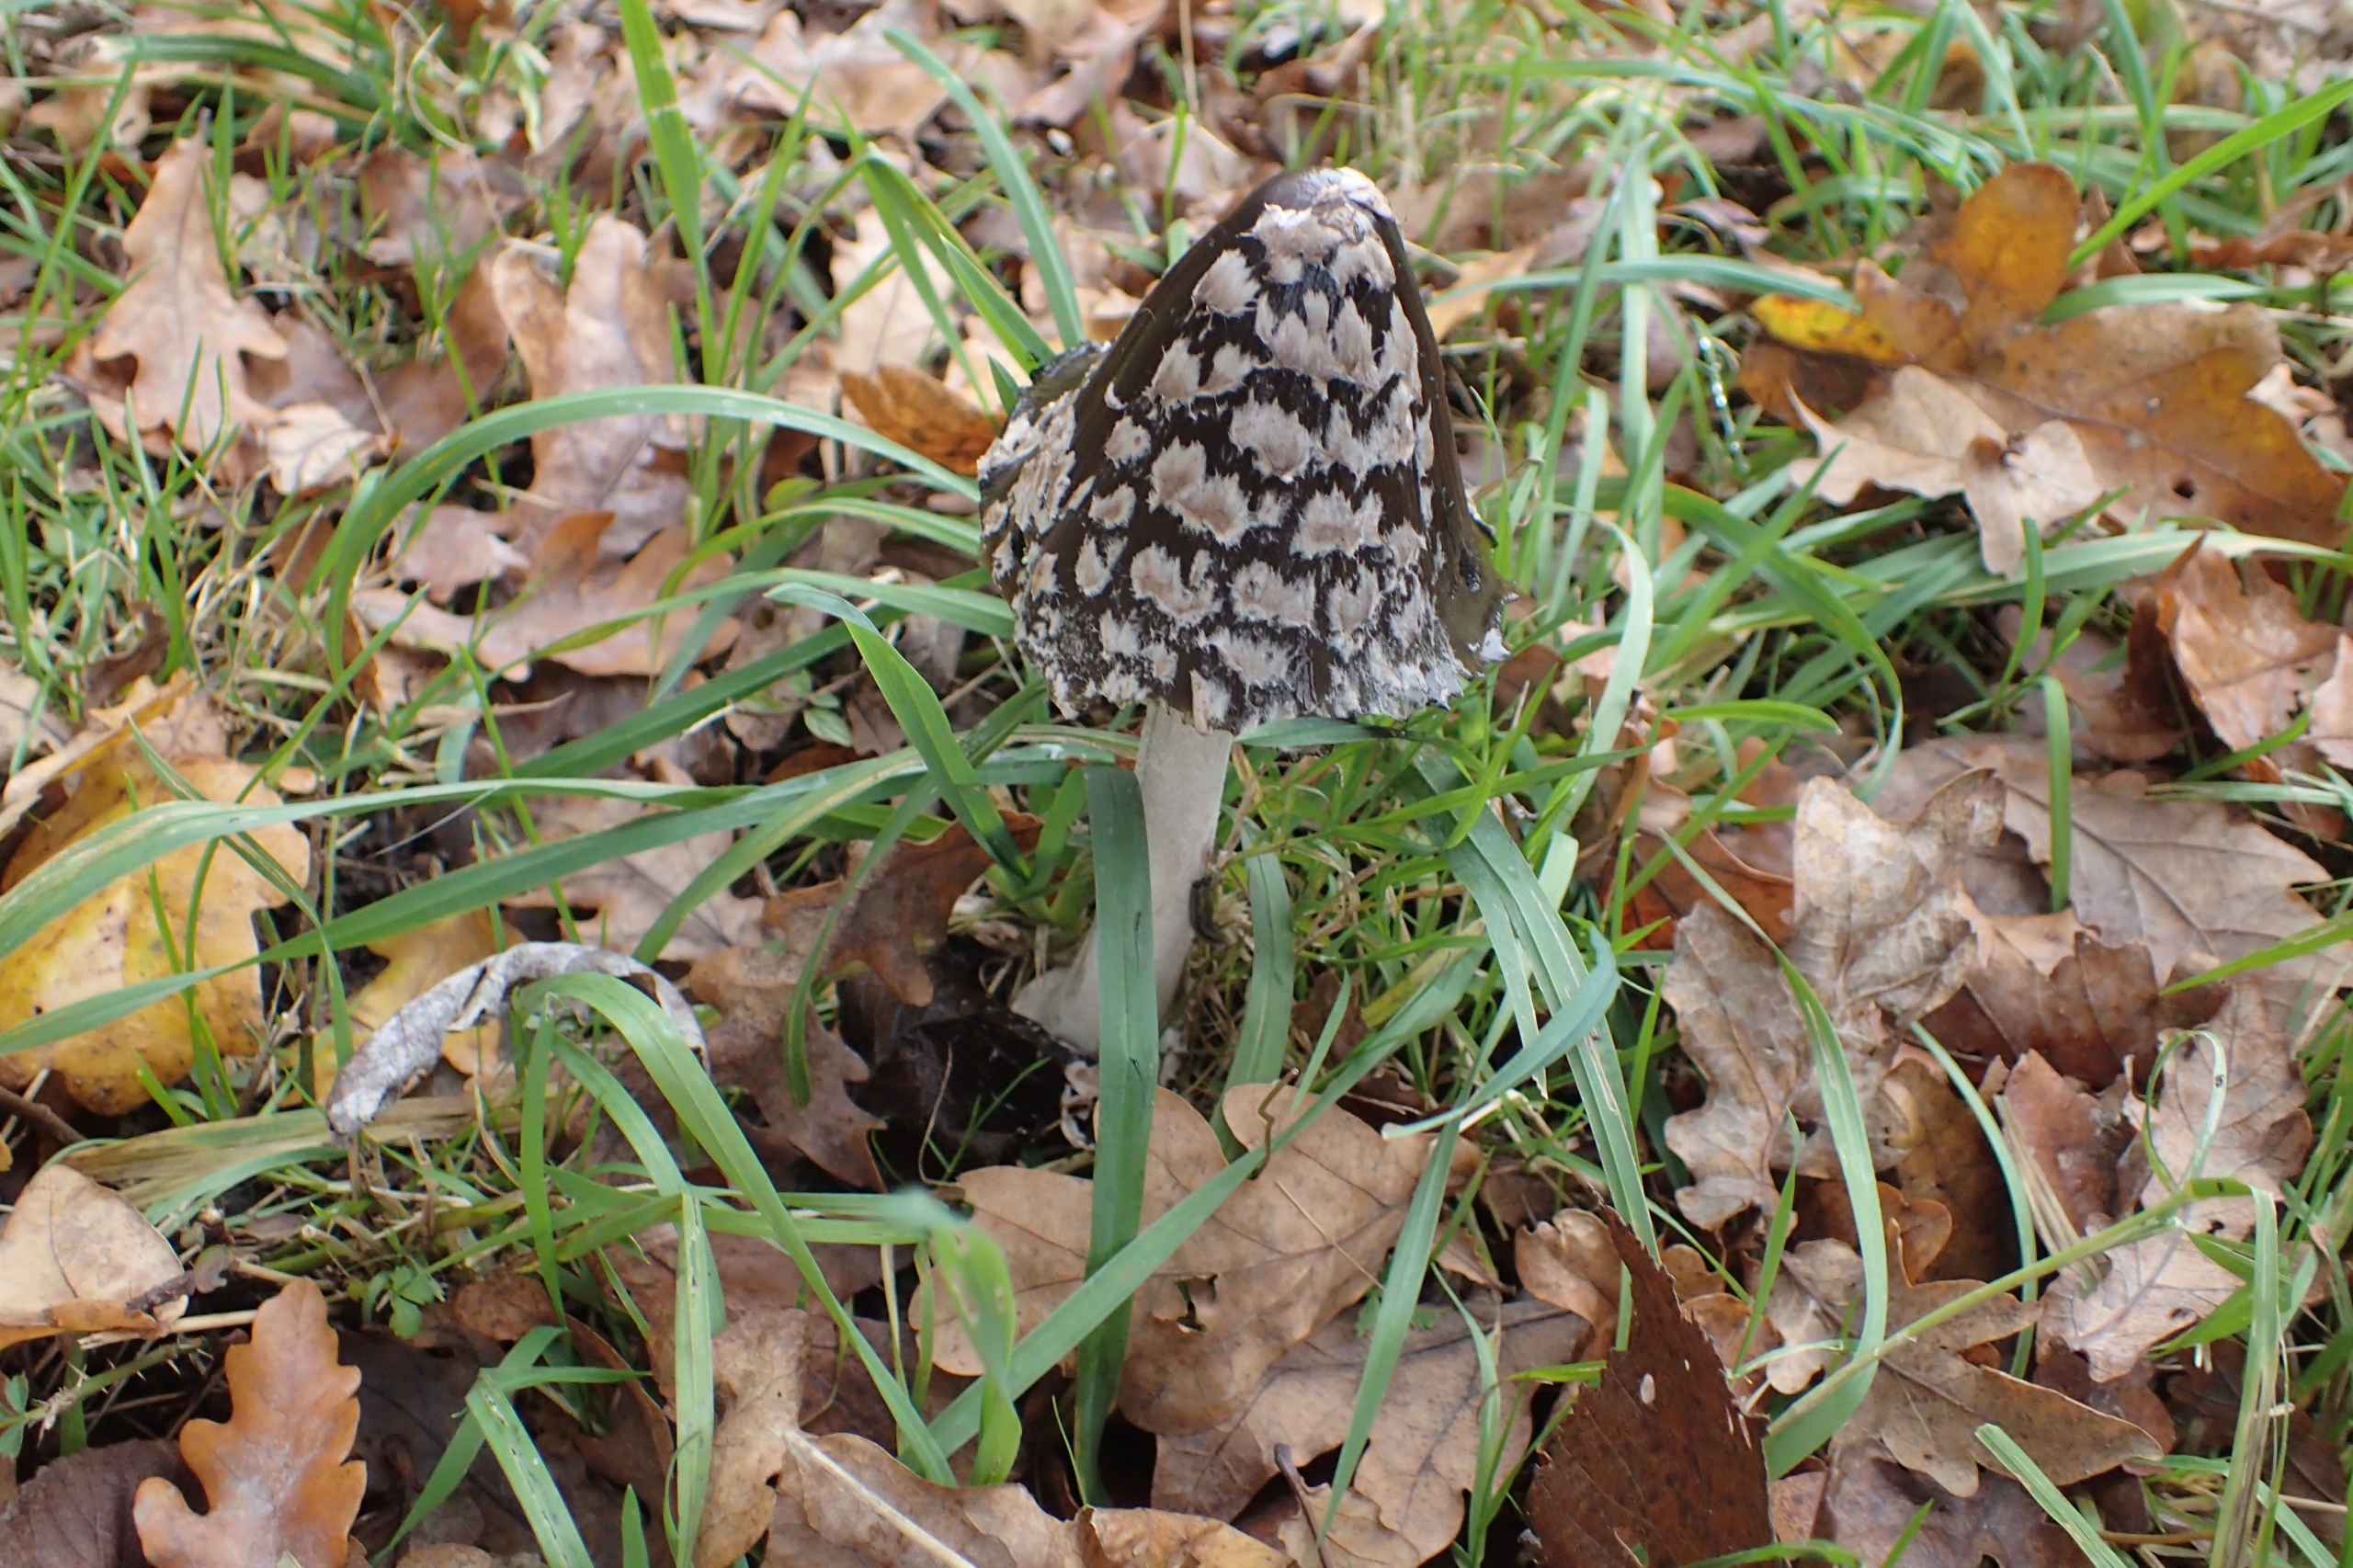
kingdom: Fungi
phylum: Basidiomycota
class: Agaricomycetes
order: Agaricales
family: Psathyrellaceae
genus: Coprinopsis
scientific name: Coprinopsis picacea
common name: Skade-blækhat
